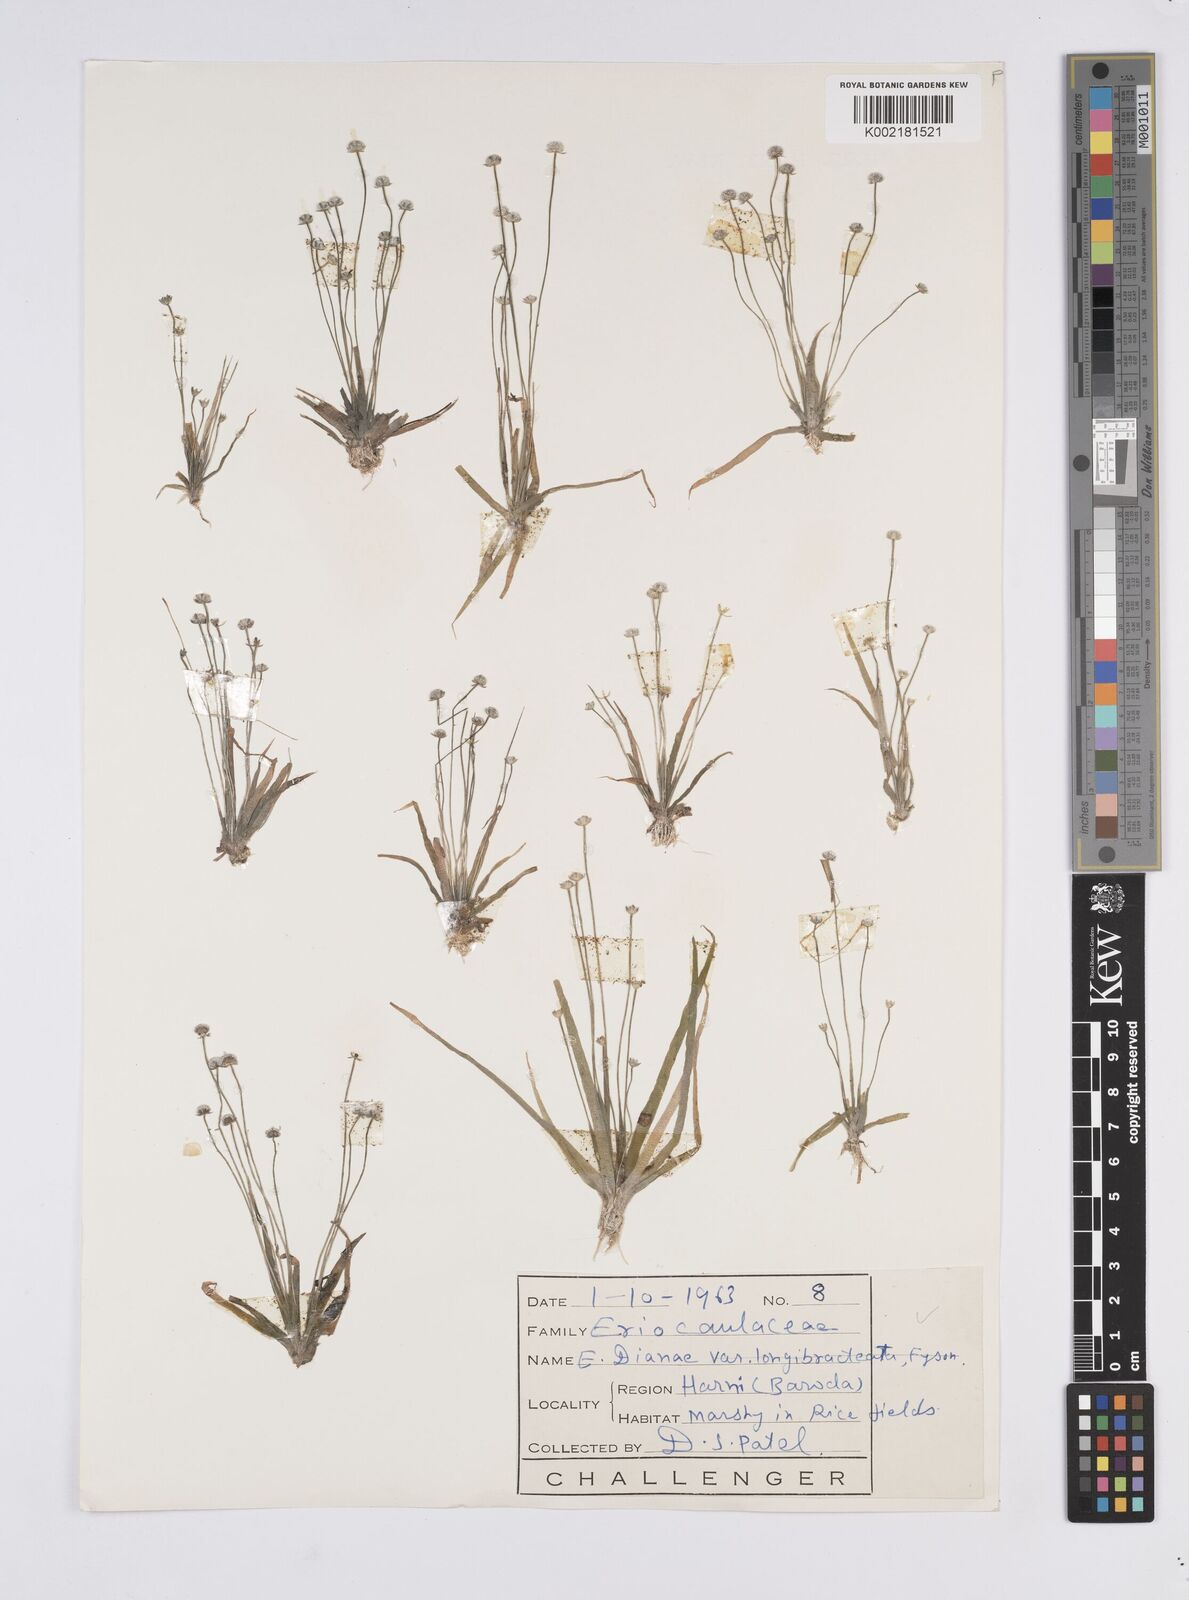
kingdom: Plantae
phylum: Tracheophyta
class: Liliopsida
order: Poales
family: Eriocaulaceae
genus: Eriocaulon
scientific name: Eriocaulon heterolepis
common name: Buttonhead pipewort
